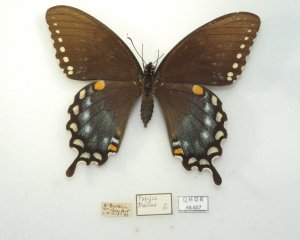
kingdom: Animalia
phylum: Arthropoda
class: Insecta
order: Lepidoptera
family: Papilionidae
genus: Pterourus
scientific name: Pterourus troilus
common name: Spicebush Swallowtail
